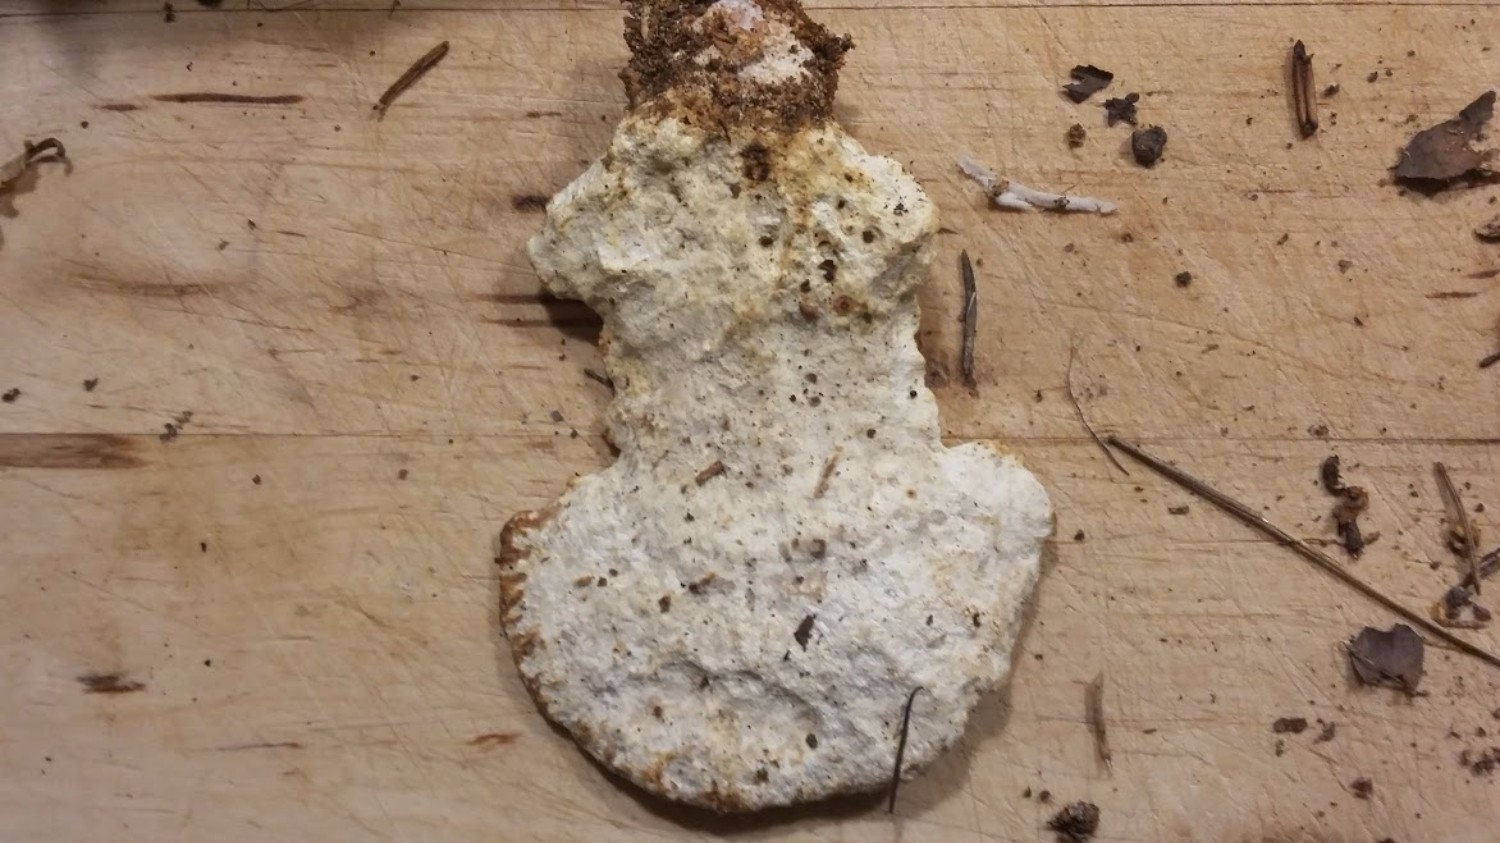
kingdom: Fungi
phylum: Basidiomycota
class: Agaricomycetes
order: Polyporales
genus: Calcipostia
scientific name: Calcipostia guttulata
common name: dråbe-kødporesvamp
